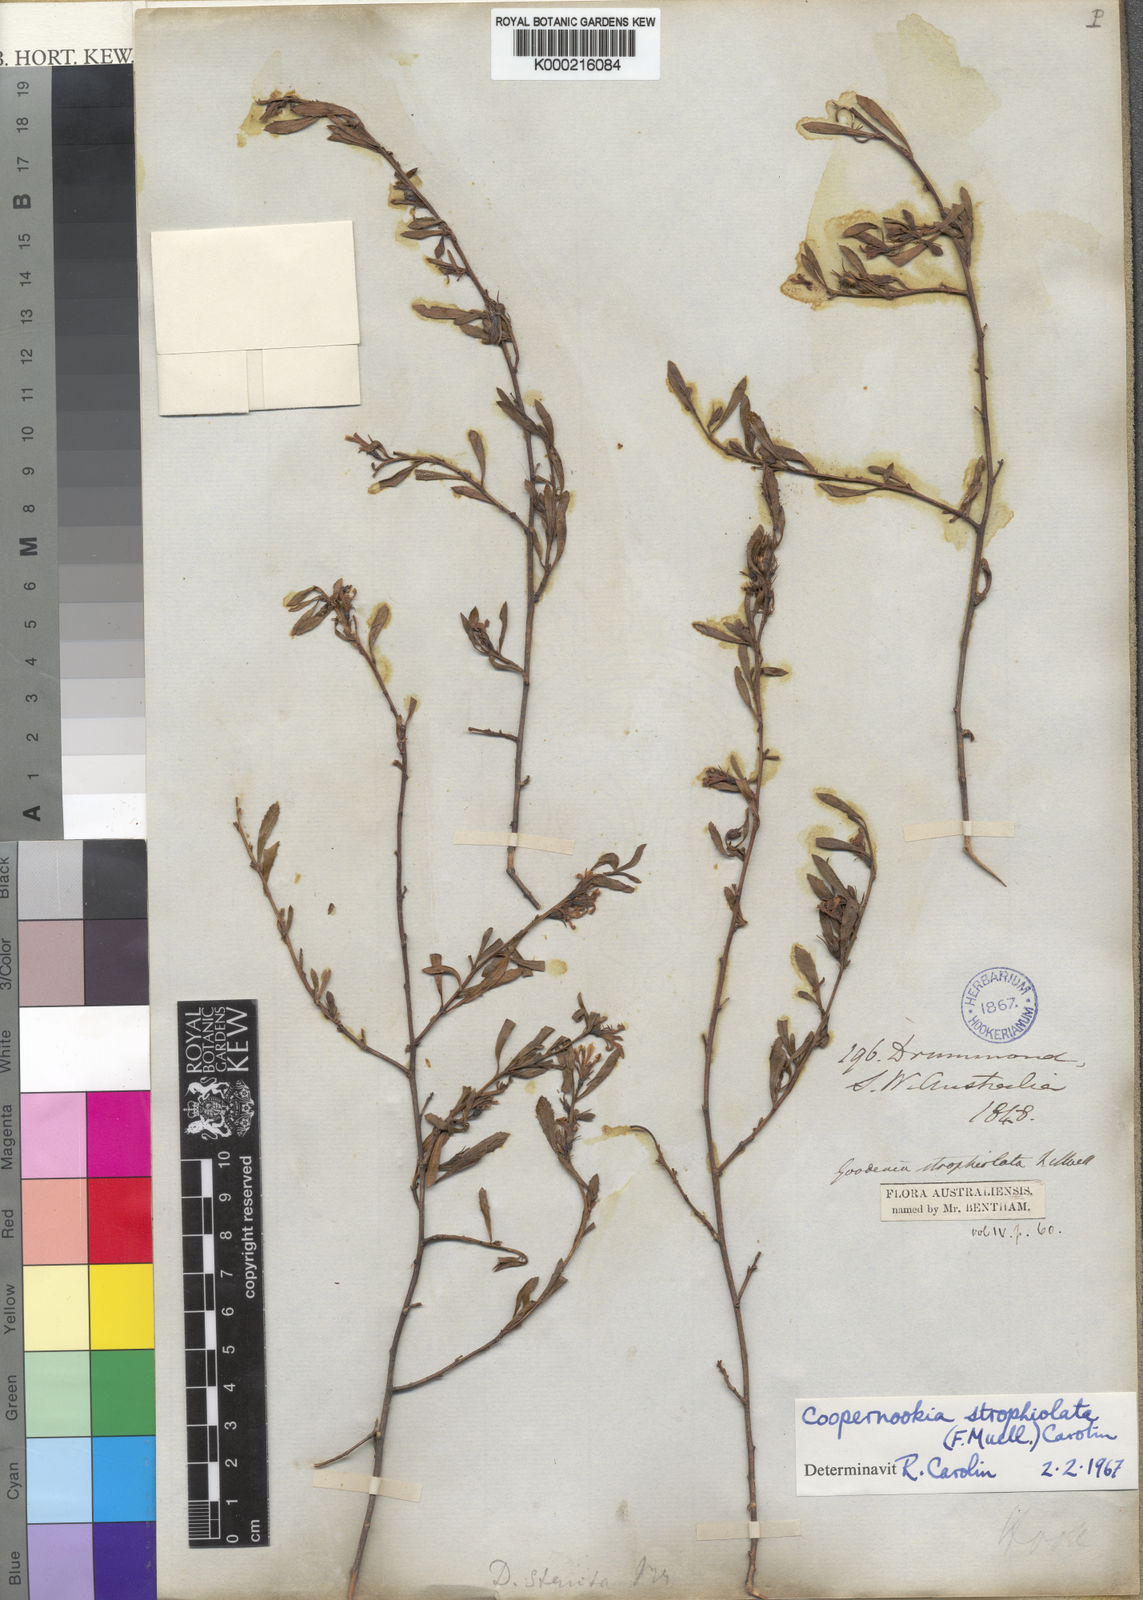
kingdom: Plantae
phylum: Tracheophyta
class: Magnoliopsida
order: Asterales
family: Goodeniaceae
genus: Goodenia
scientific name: Goodenia strophiolata
